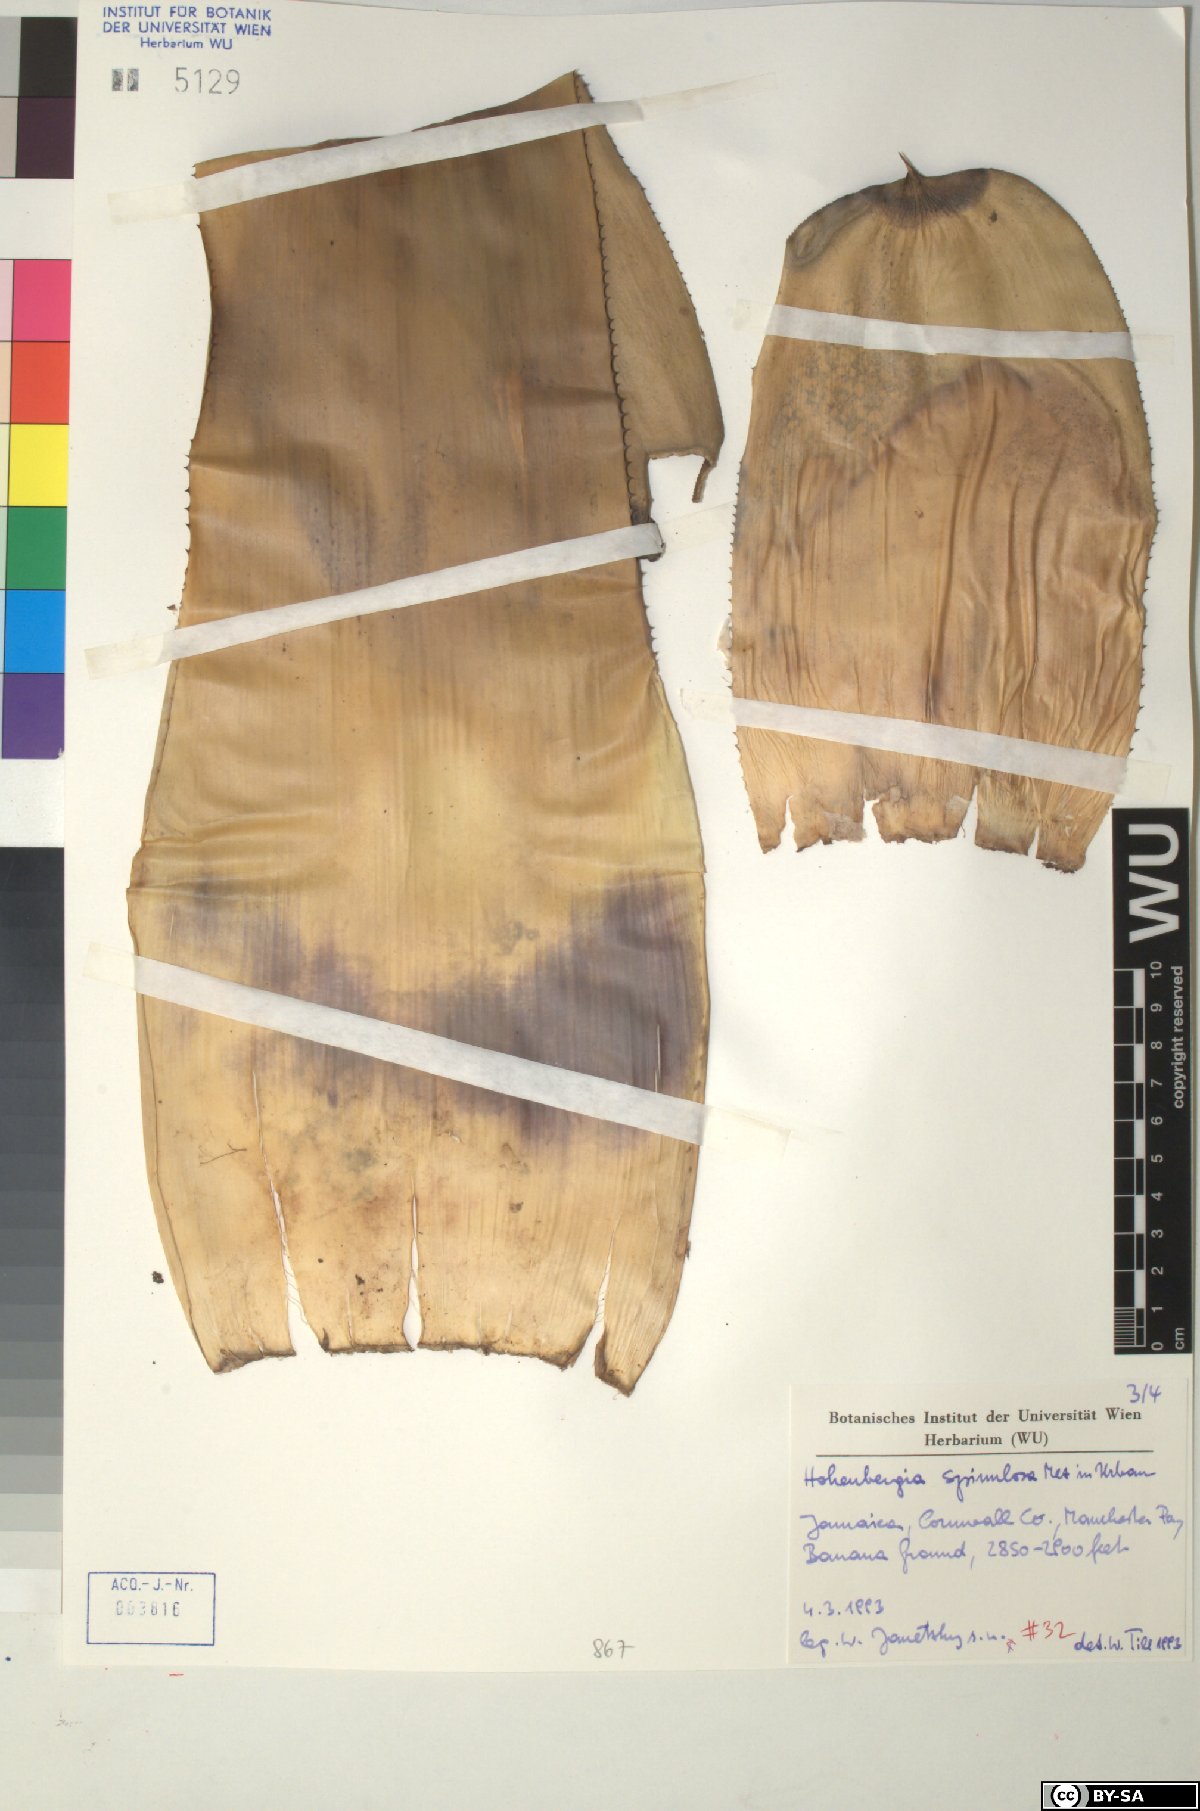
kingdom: Plantae
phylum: Tracheophyta
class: Liliopsida
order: Poales
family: Bromeliaceae
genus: Wittmackia
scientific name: Wittmackia spinulosa
